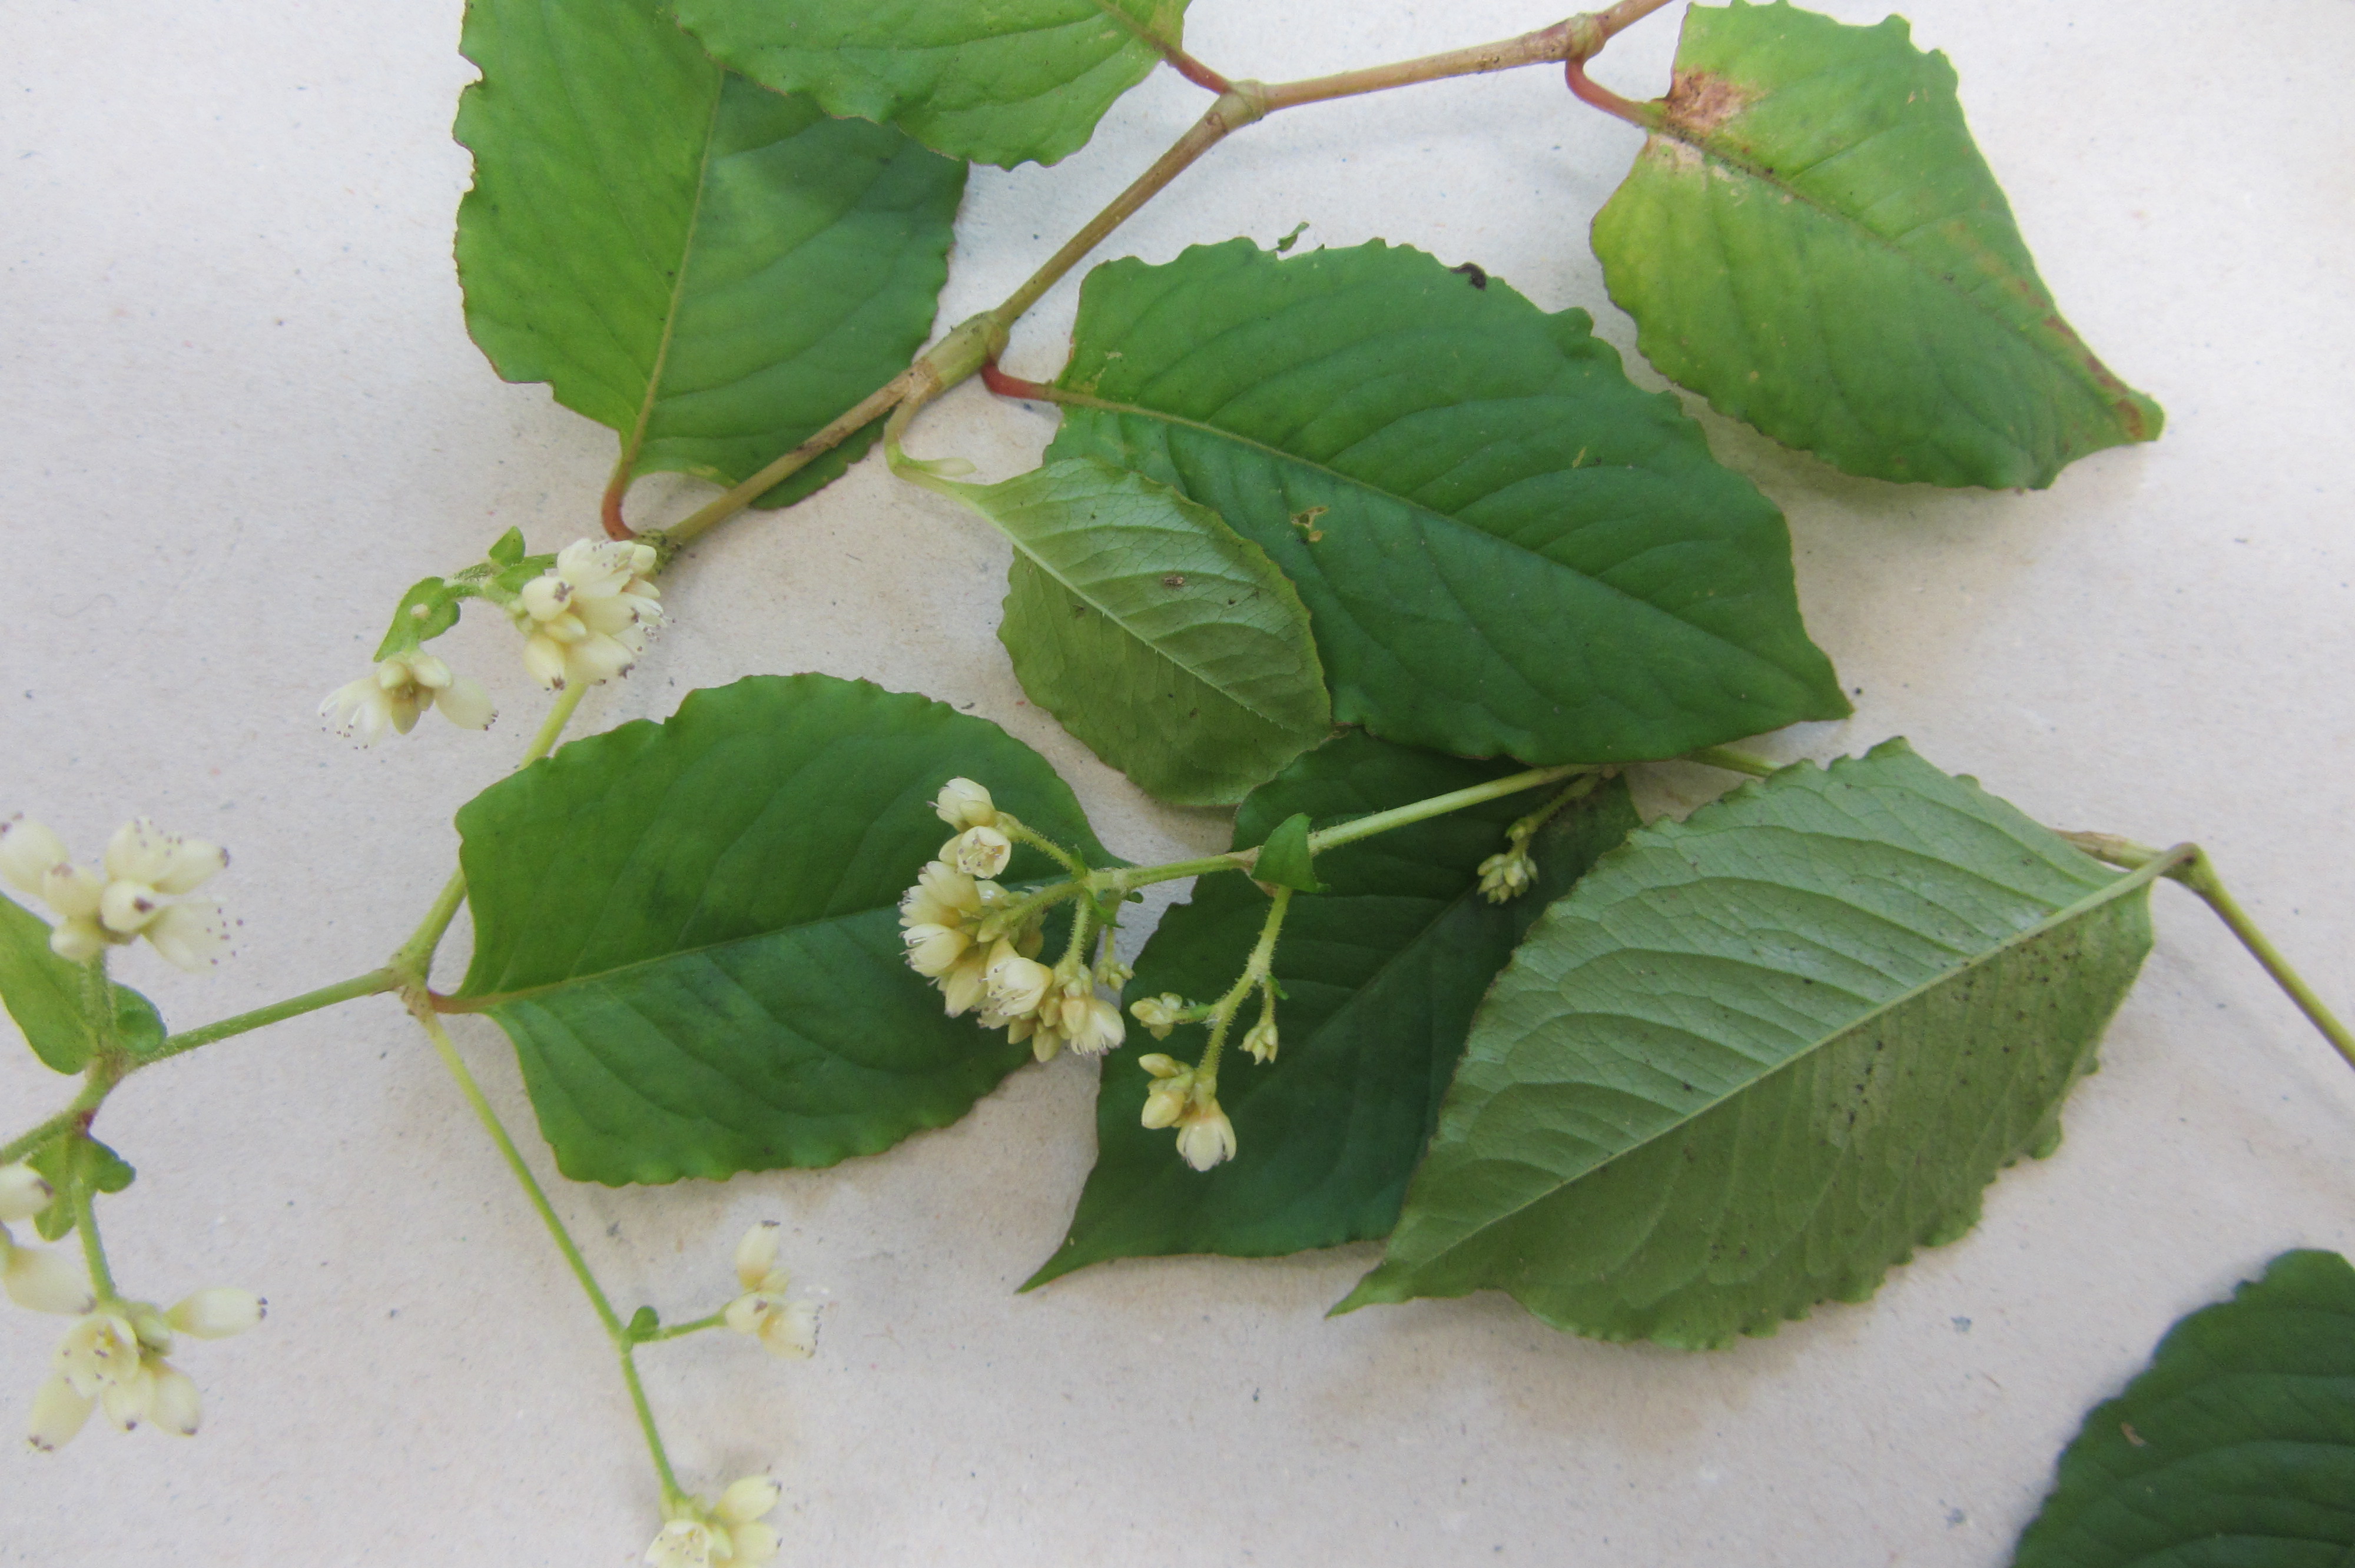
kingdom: Plantae
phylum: Tracheophyta
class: Magnoliopsida
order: Caryophyllales
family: Polygonaceae
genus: Persicaria
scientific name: Persicaria chinensis
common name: Chinese knotweed
